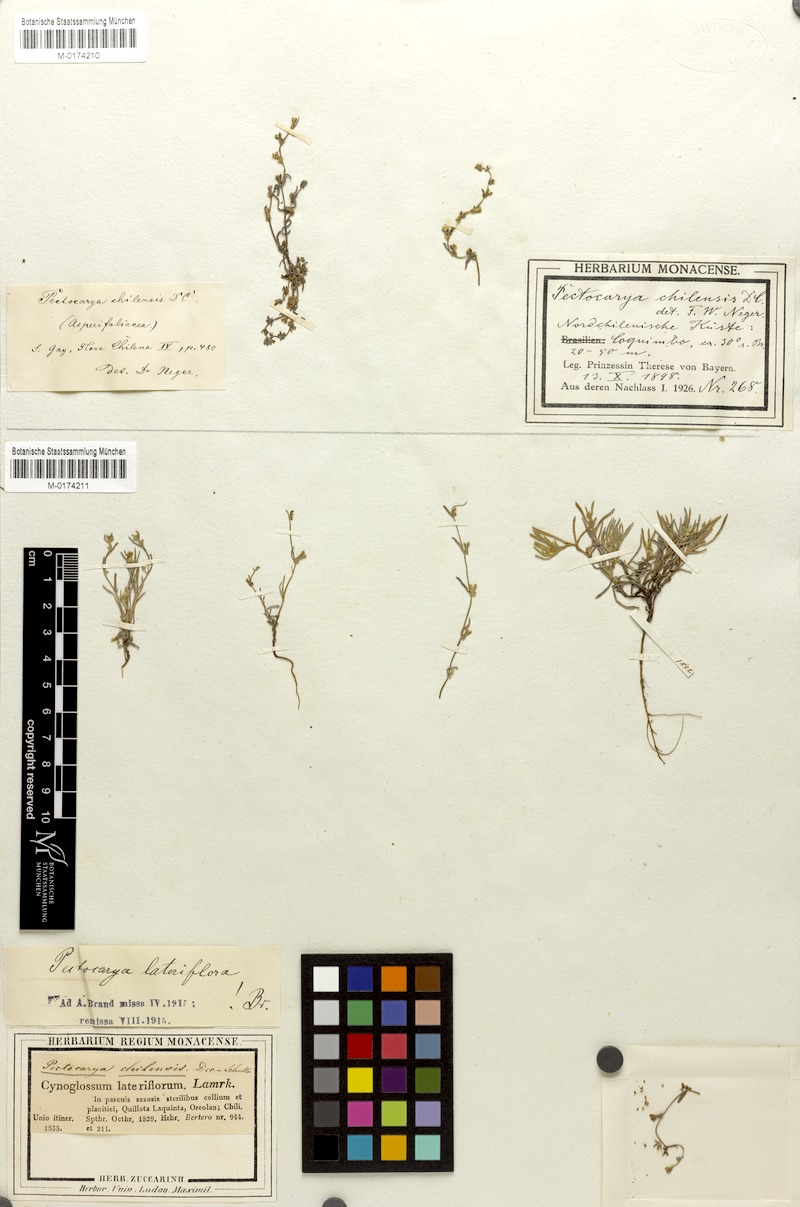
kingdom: Plantae
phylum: Tracheophyta
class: Magnoliopsida
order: Boraginales
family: Boraginaceae
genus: Pectocarya
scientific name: Pectocarya linearis
